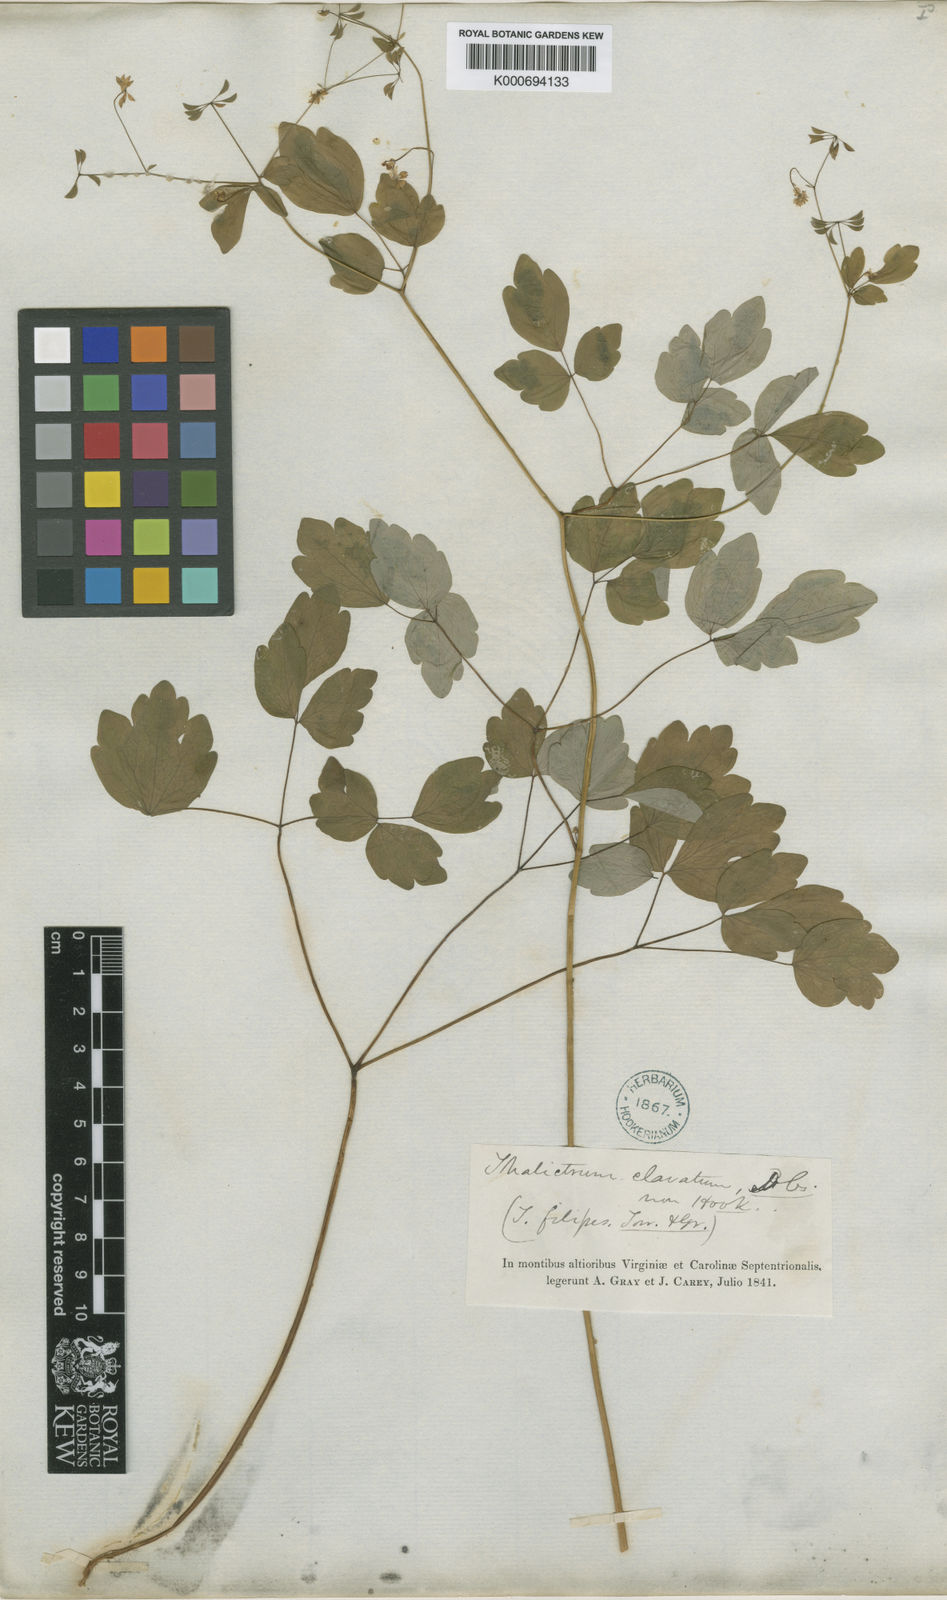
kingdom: Plantae
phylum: Tracheophyta
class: Magnoliopsida
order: Ranunculales
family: Ranunculaceae
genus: Thalictrum
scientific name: Thalictrum clavatum
